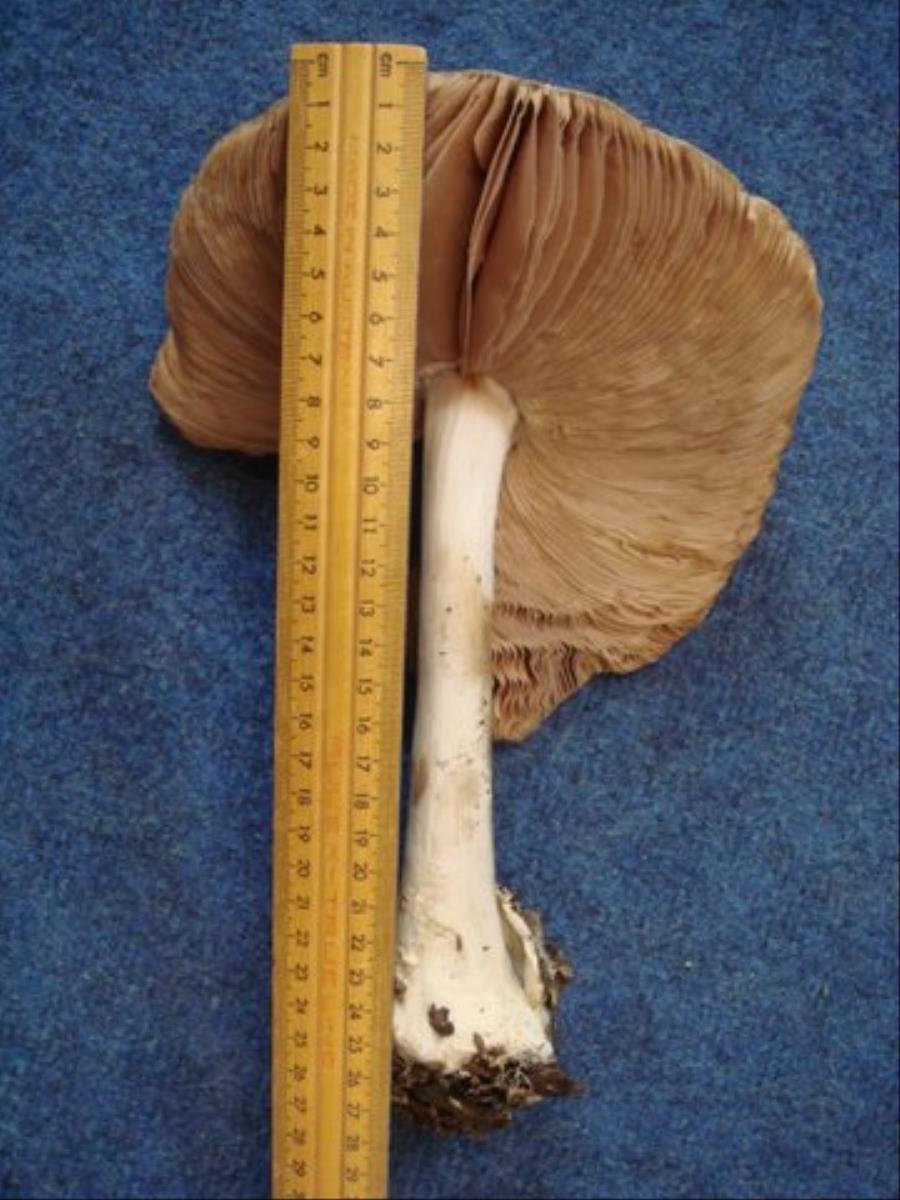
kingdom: Fungi
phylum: Basidiomycota
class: Agaricomycetes
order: Agaricales
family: Pluteaceae
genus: Volvopluteus
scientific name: Volvopluteus gloiocephalus
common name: Stubble rosegill
